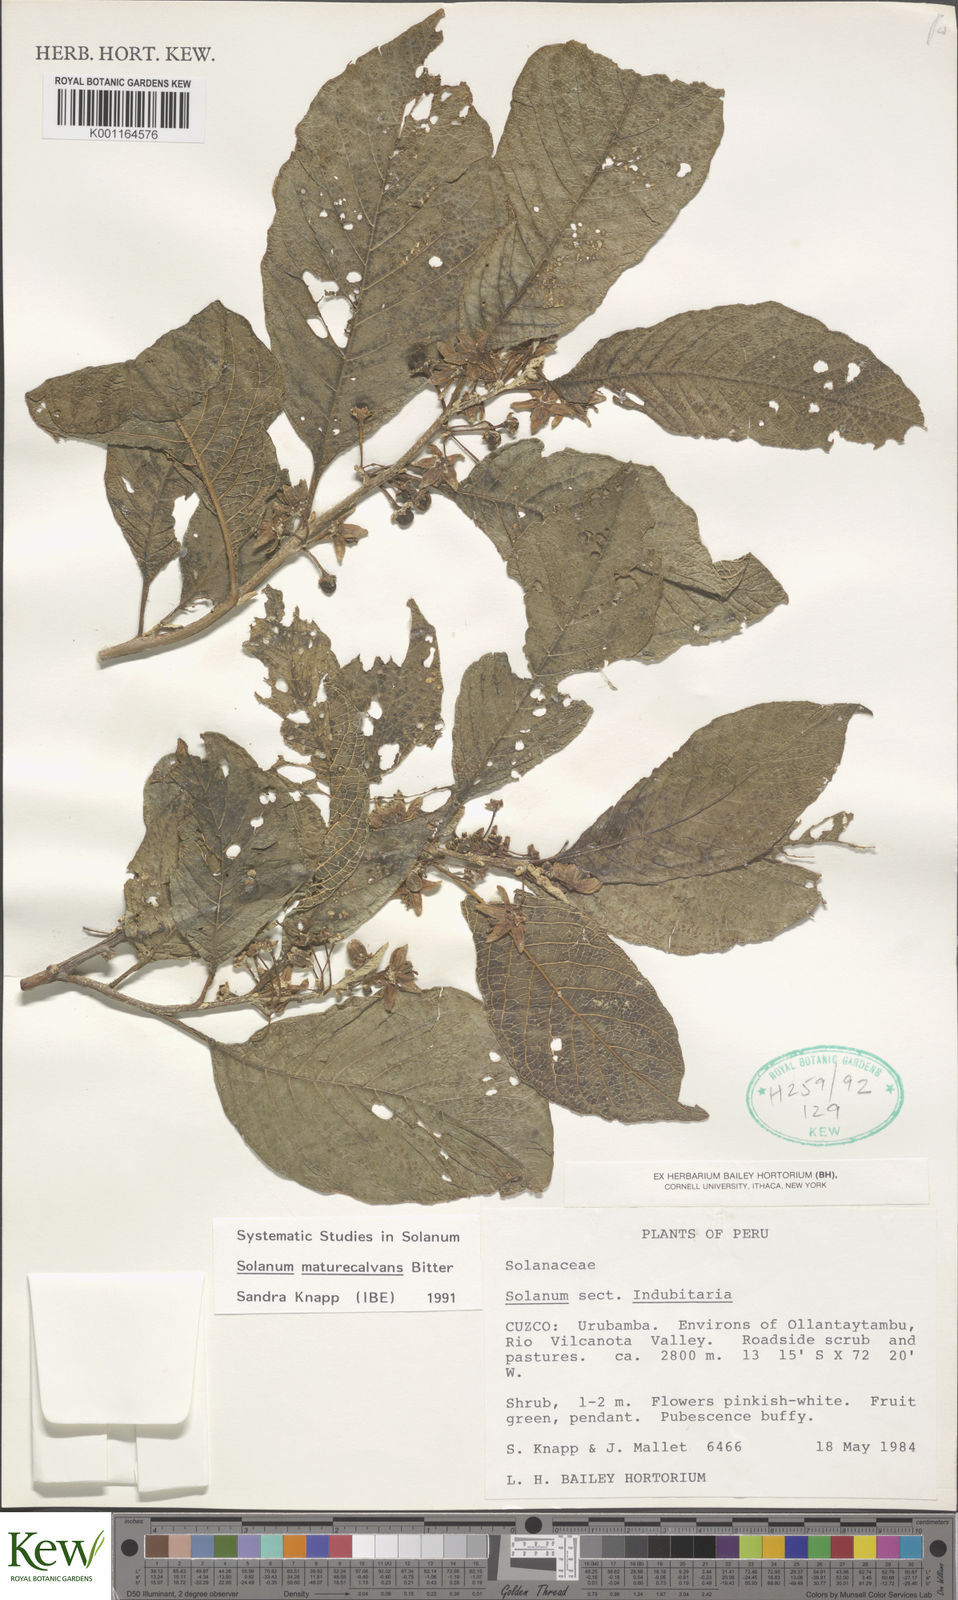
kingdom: Plantae
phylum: Tracheophyta
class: Magnoliopsida
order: Solanales
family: Solanaceae
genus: Solanum
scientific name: Solanum maturecalvans
